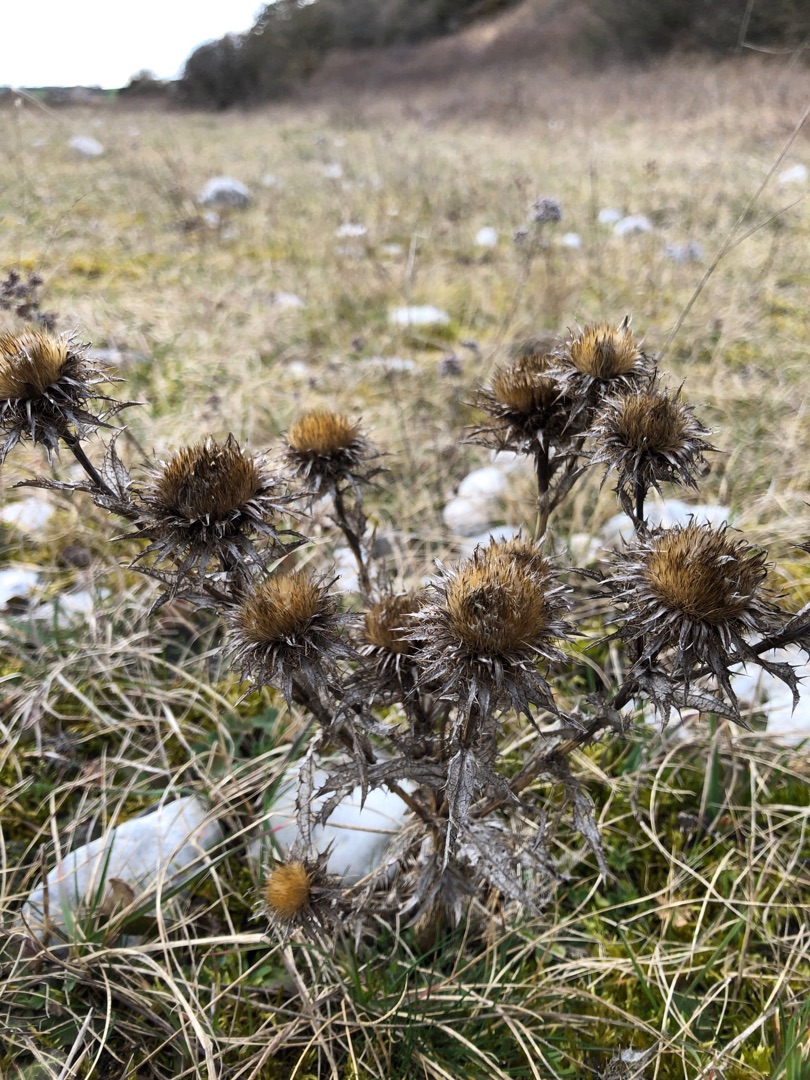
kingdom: Plantae
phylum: Tracheophyta
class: Magnoliopsida
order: Asterales
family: Asteraceae
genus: Carlina
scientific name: Carlina vulgaris
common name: Bakketidsel
